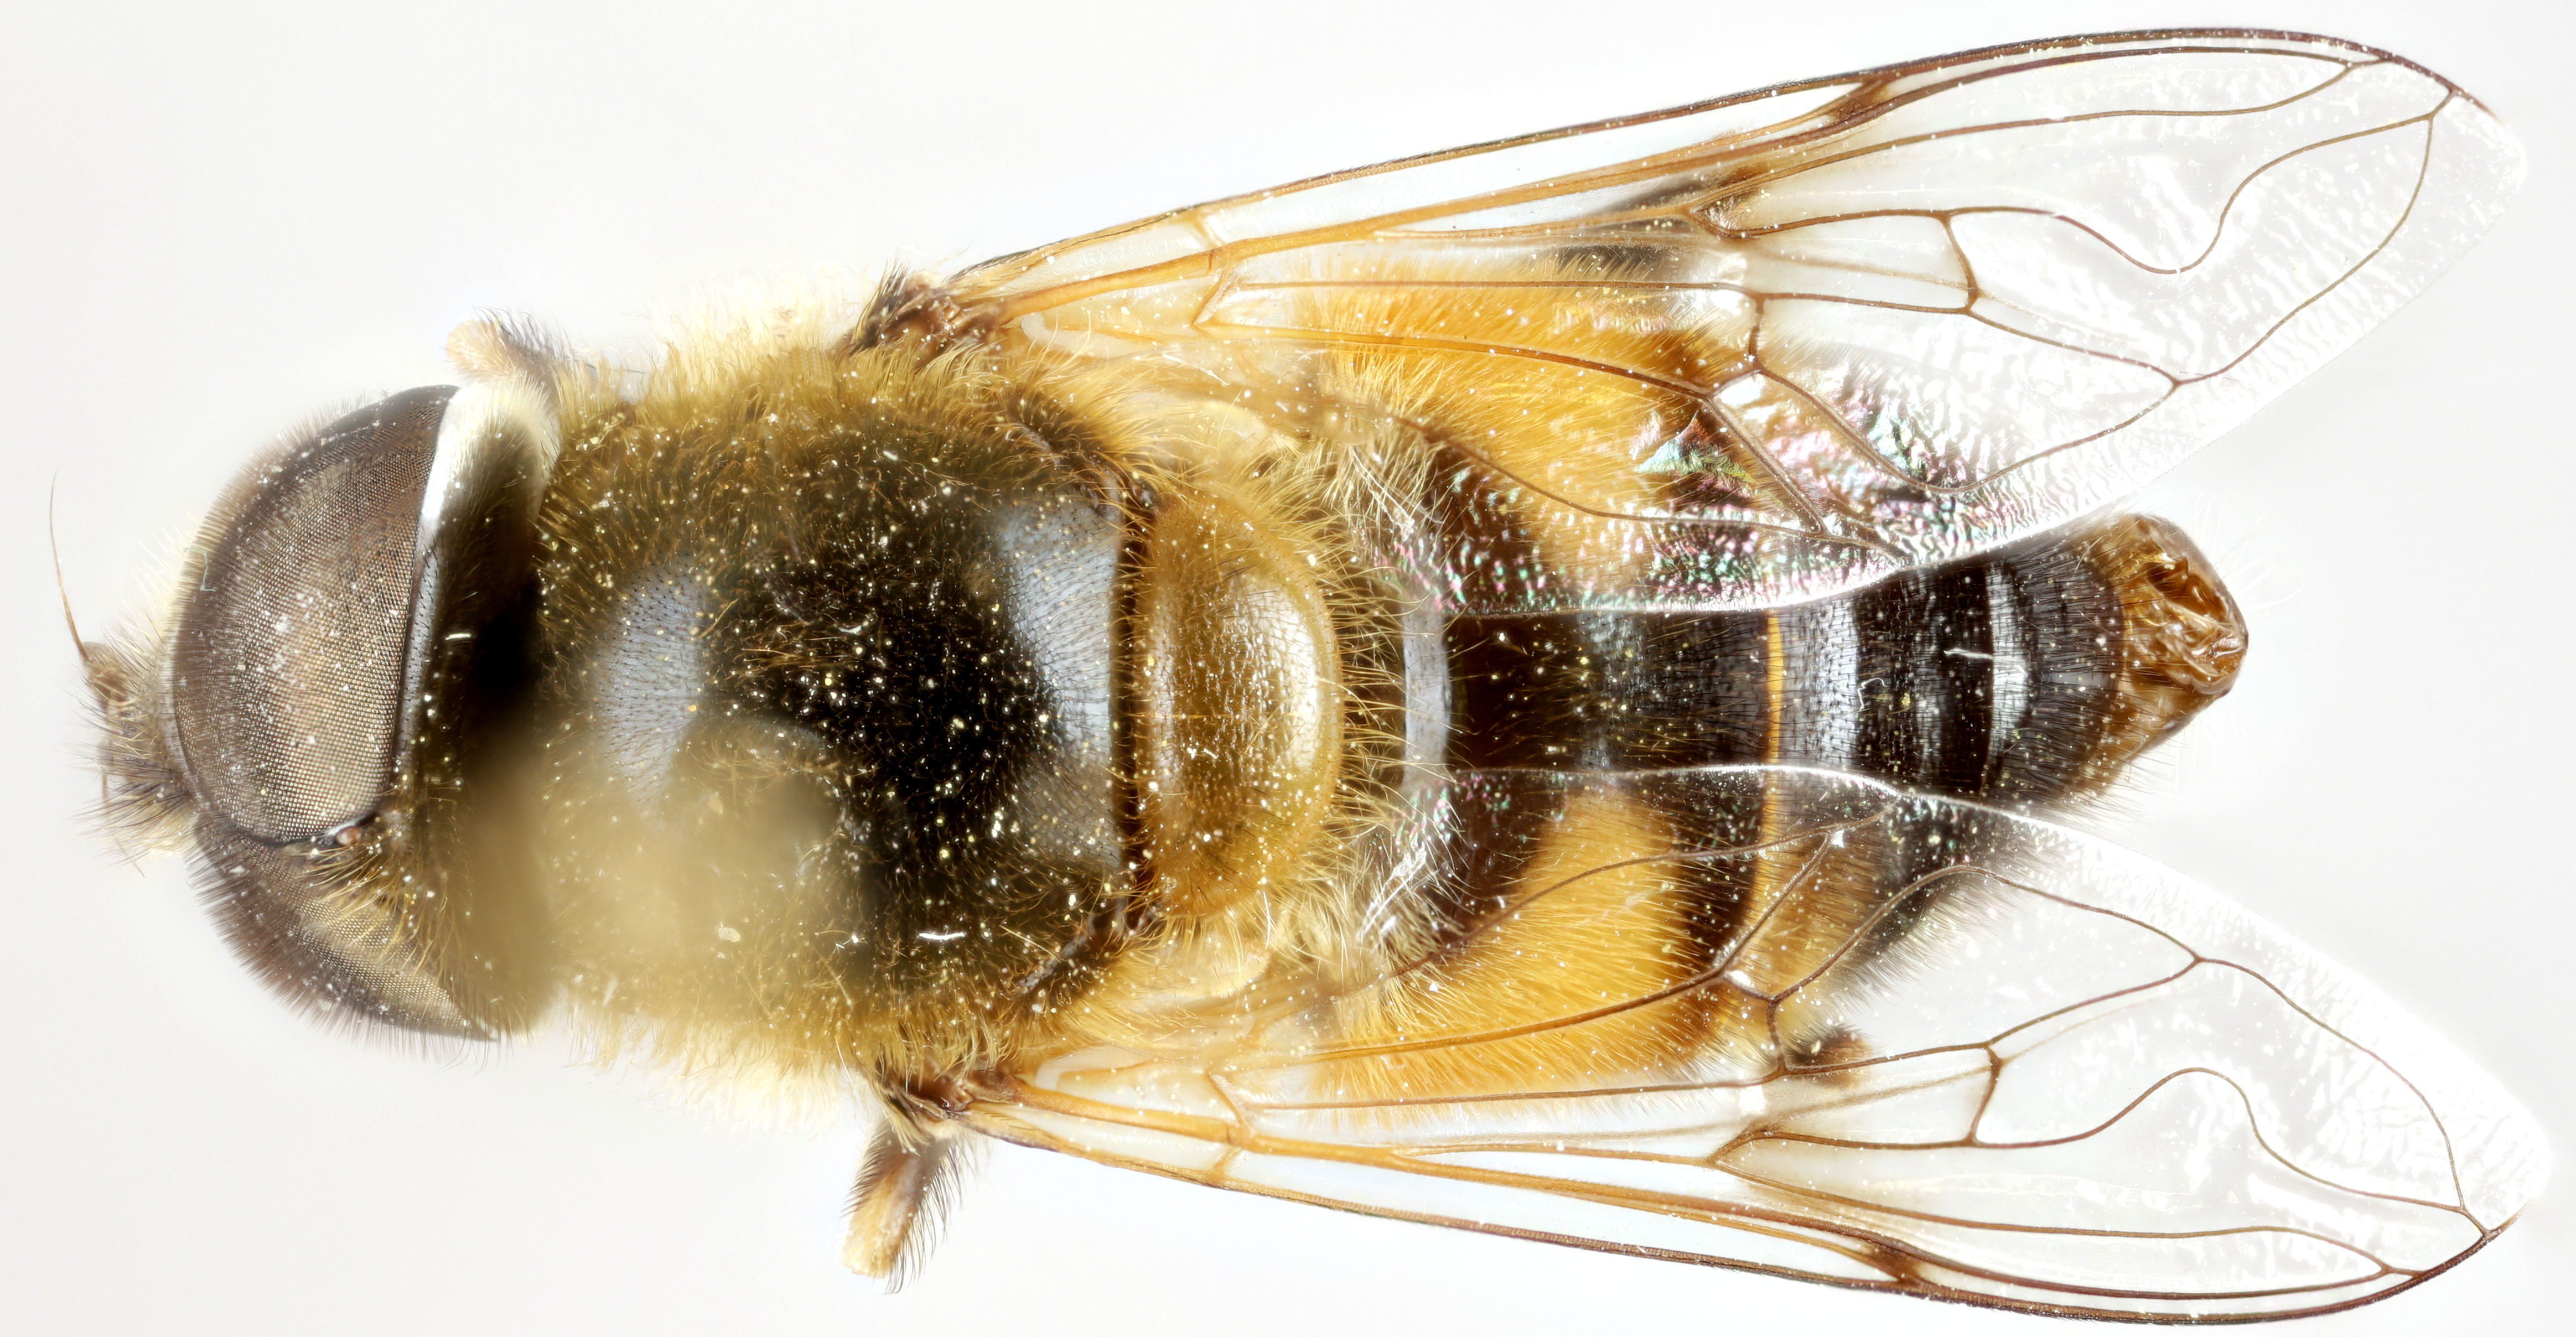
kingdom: Animalia
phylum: Arthropoda
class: Insecta
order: Diptera
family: Syrphidae
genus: Eristalis
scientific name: Eristalis
